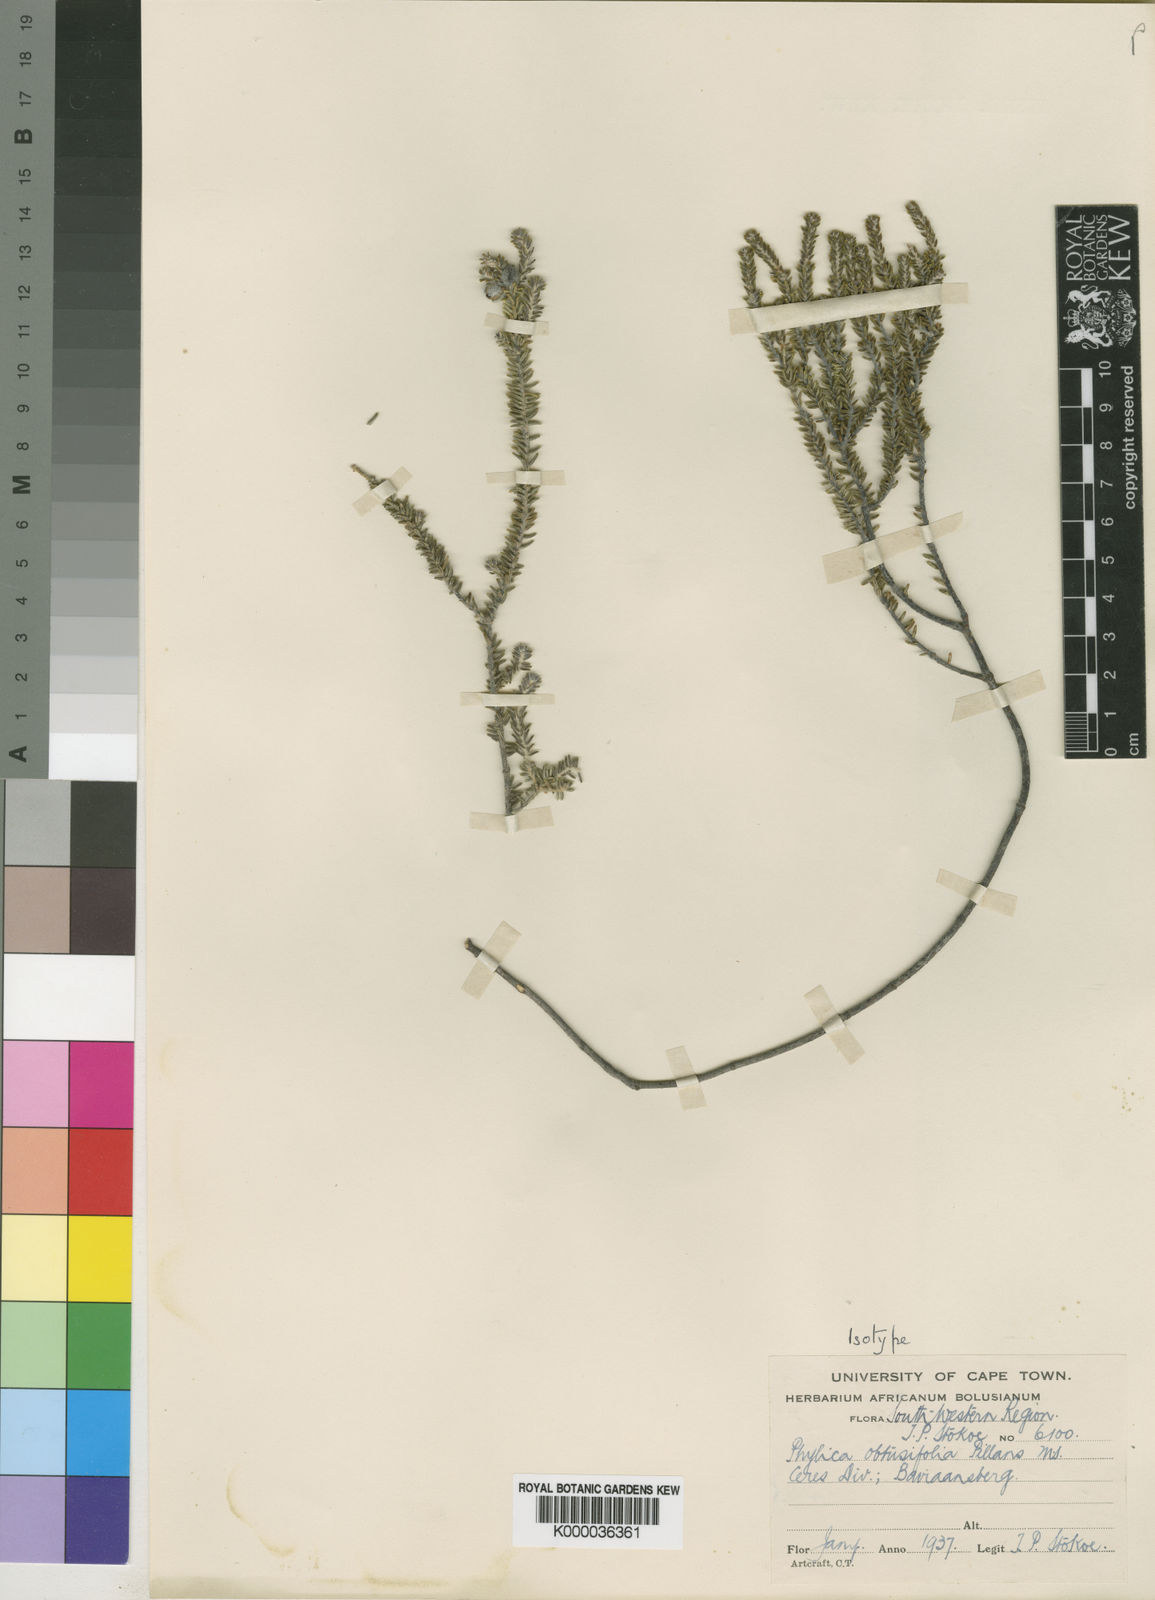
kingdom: Plantae
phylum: Tracheophyta
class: Magnoliopsida
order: Rosales
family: Rhamnaceae
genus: Phylica
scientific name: Phylica obtusifolia
